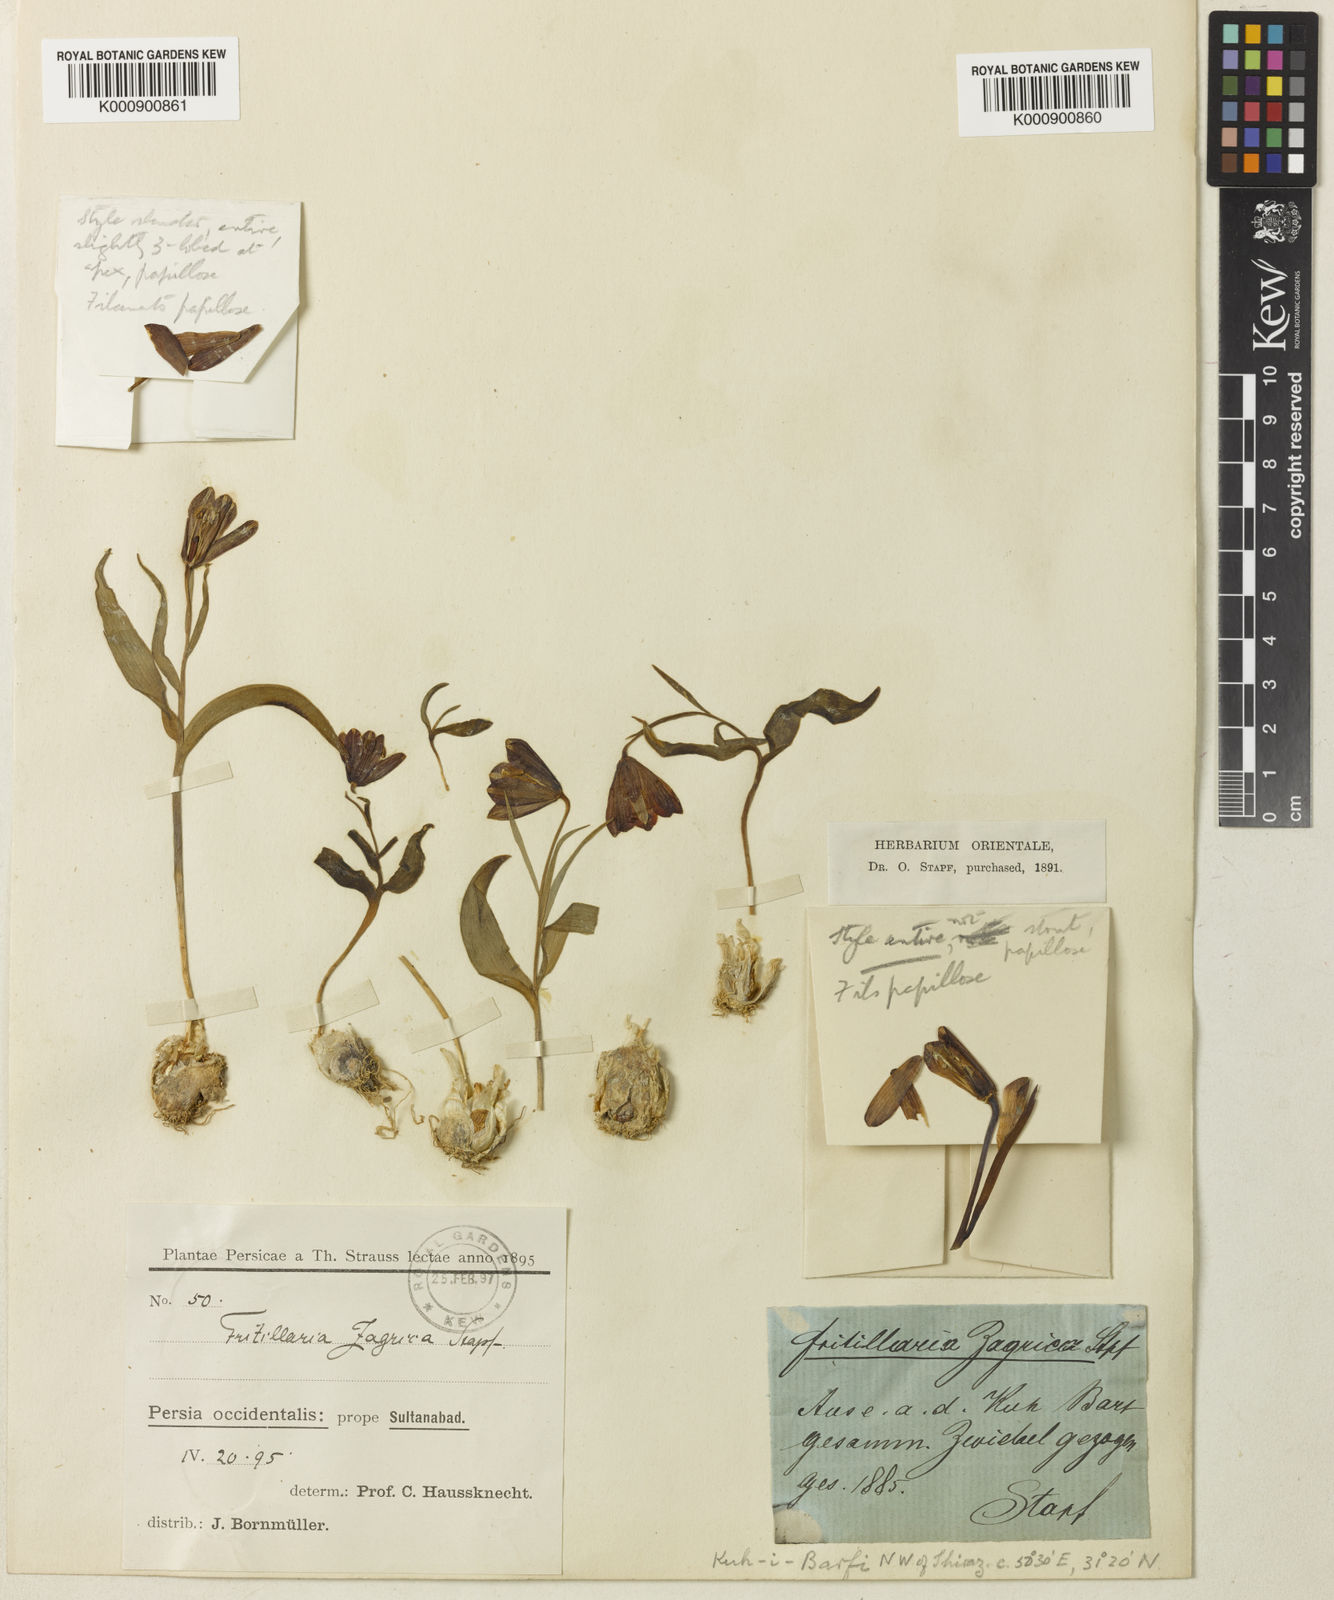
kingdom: Plantae
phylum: Tracheophyta
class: Liliopsida
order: Liliales
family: Liliaceae
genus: Fritillaria
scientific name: Fritillaria pinardii
